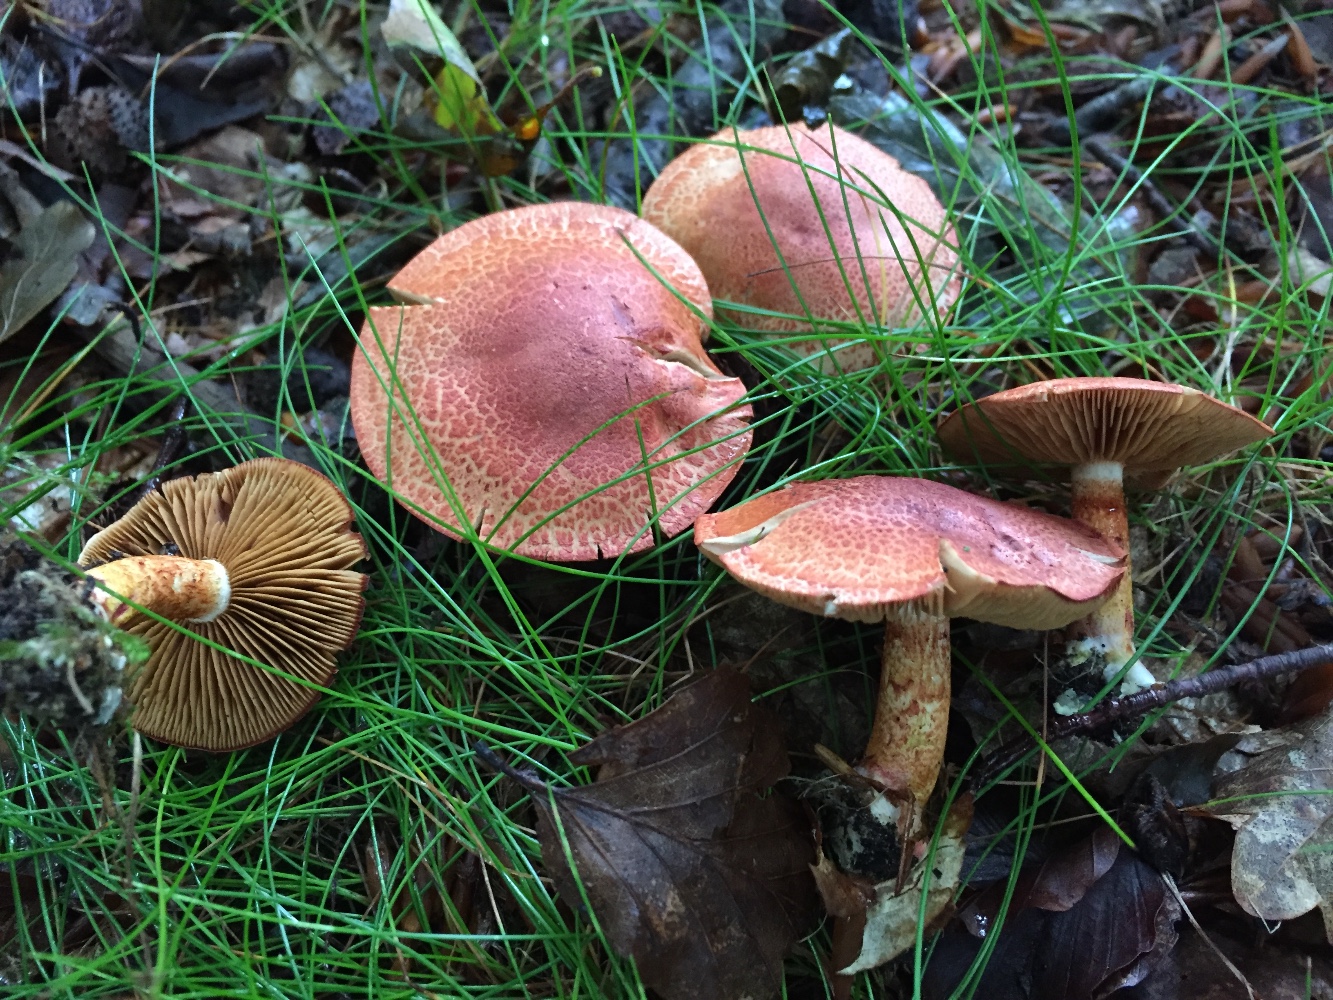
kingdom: Fungi
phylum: Basidiomycota
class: Agaricomycetes
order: Agaricales
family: Cortinariaceae
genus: Cortinarius
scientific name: Cortinarius bolaris
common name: cinnoberskællet slørhat
